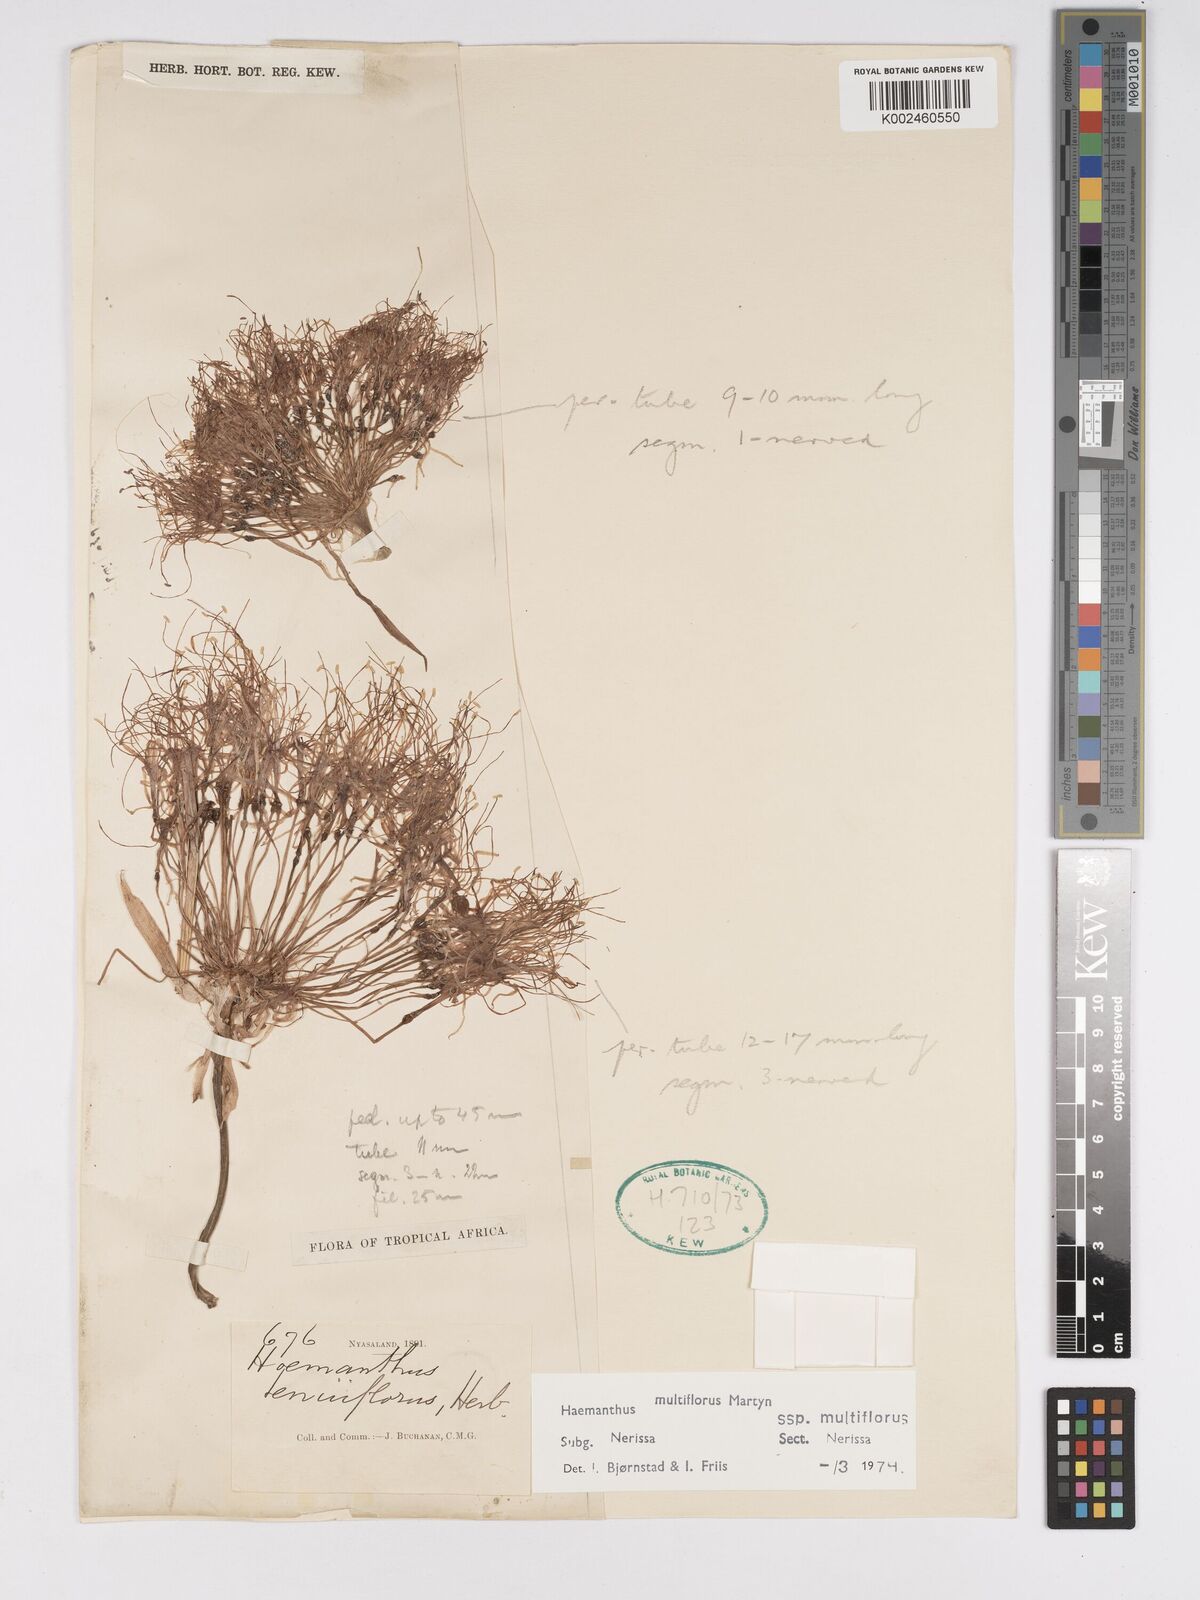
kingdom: Plantae
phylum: Tracheophyta
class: Liliopsida
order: Asparagales
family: Amaryllidaceae
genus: Scadoxus
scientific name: Scadoxus multiflorus
